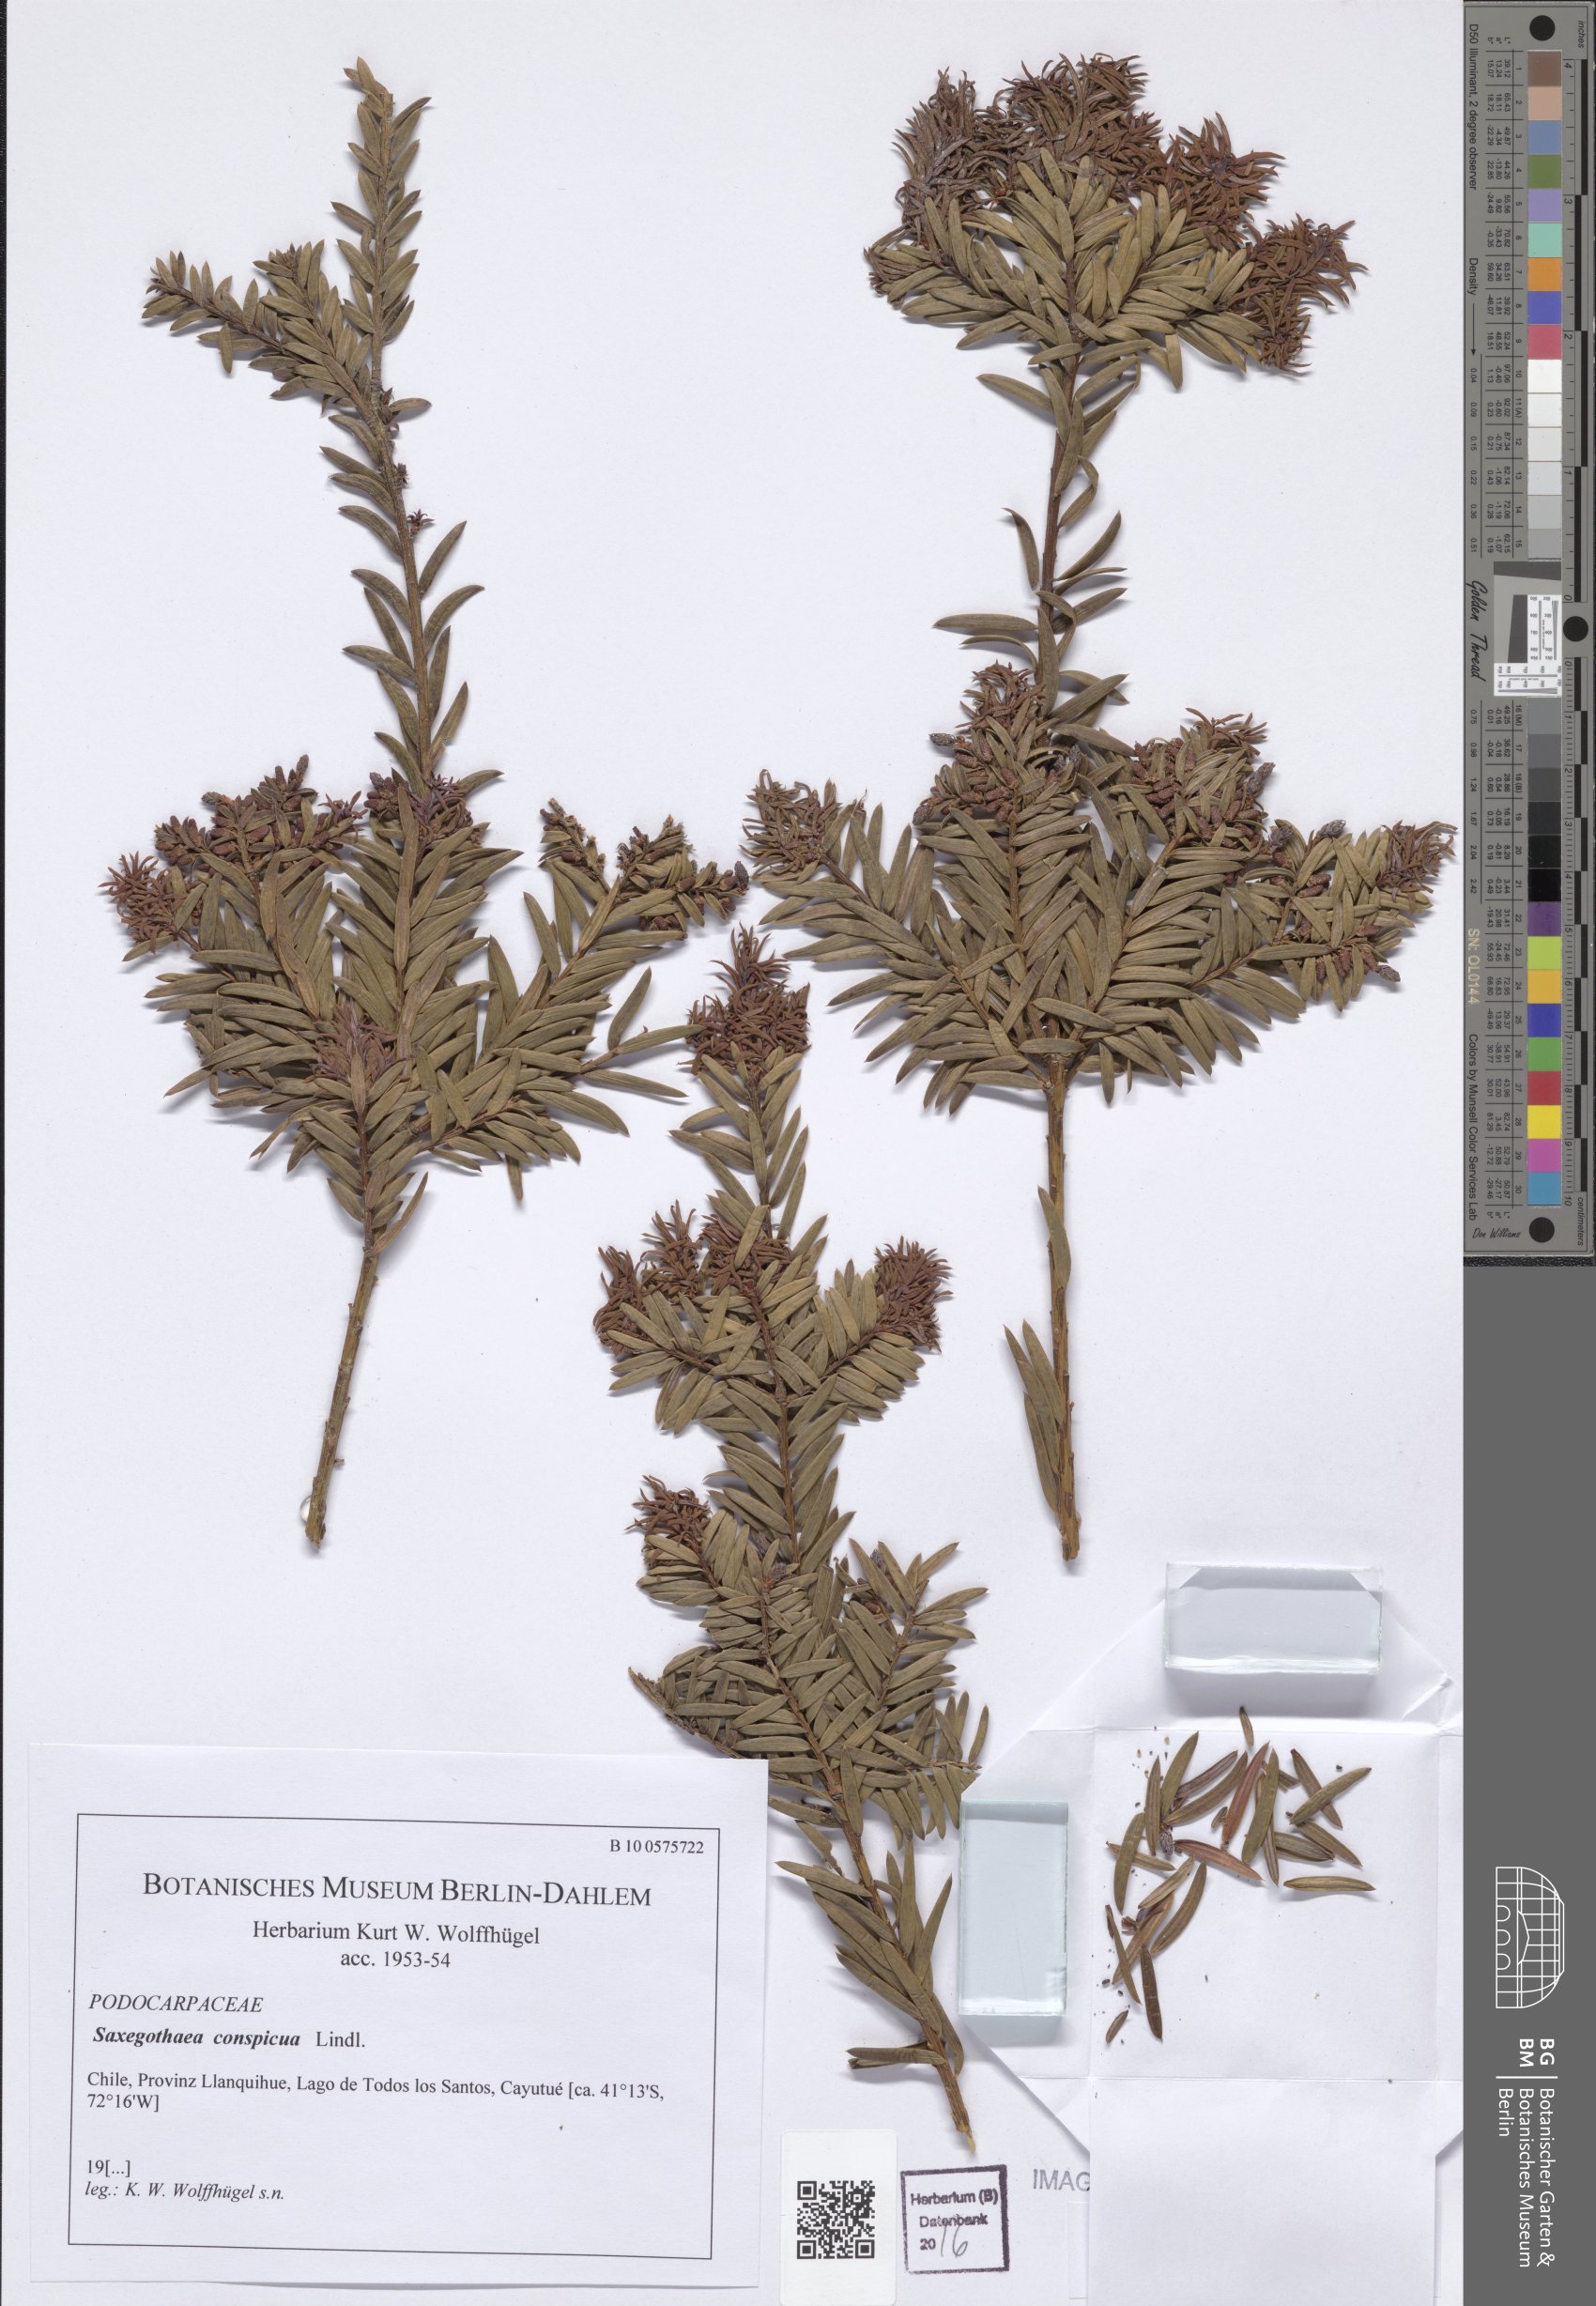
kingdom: Plantae
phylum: Tracheophyta
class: Pinopsida
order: Pinales
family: Podocarpaceae
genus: Saxegothaea
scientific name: Saxegothaea conspicua
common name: Prince albert's yew
